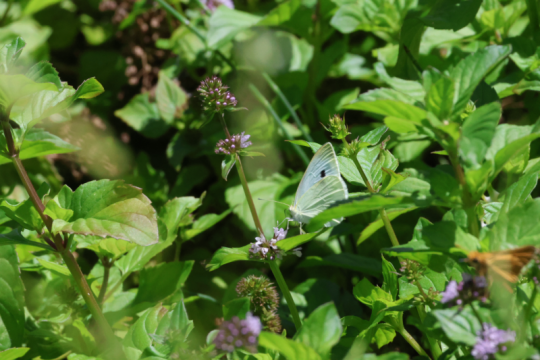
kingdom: Animalia
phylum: Arthropoda
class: Insecta
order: Lepidoptera
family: Pieridae
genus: Pieris
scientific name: Pieris rapae
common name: Cabbage White
